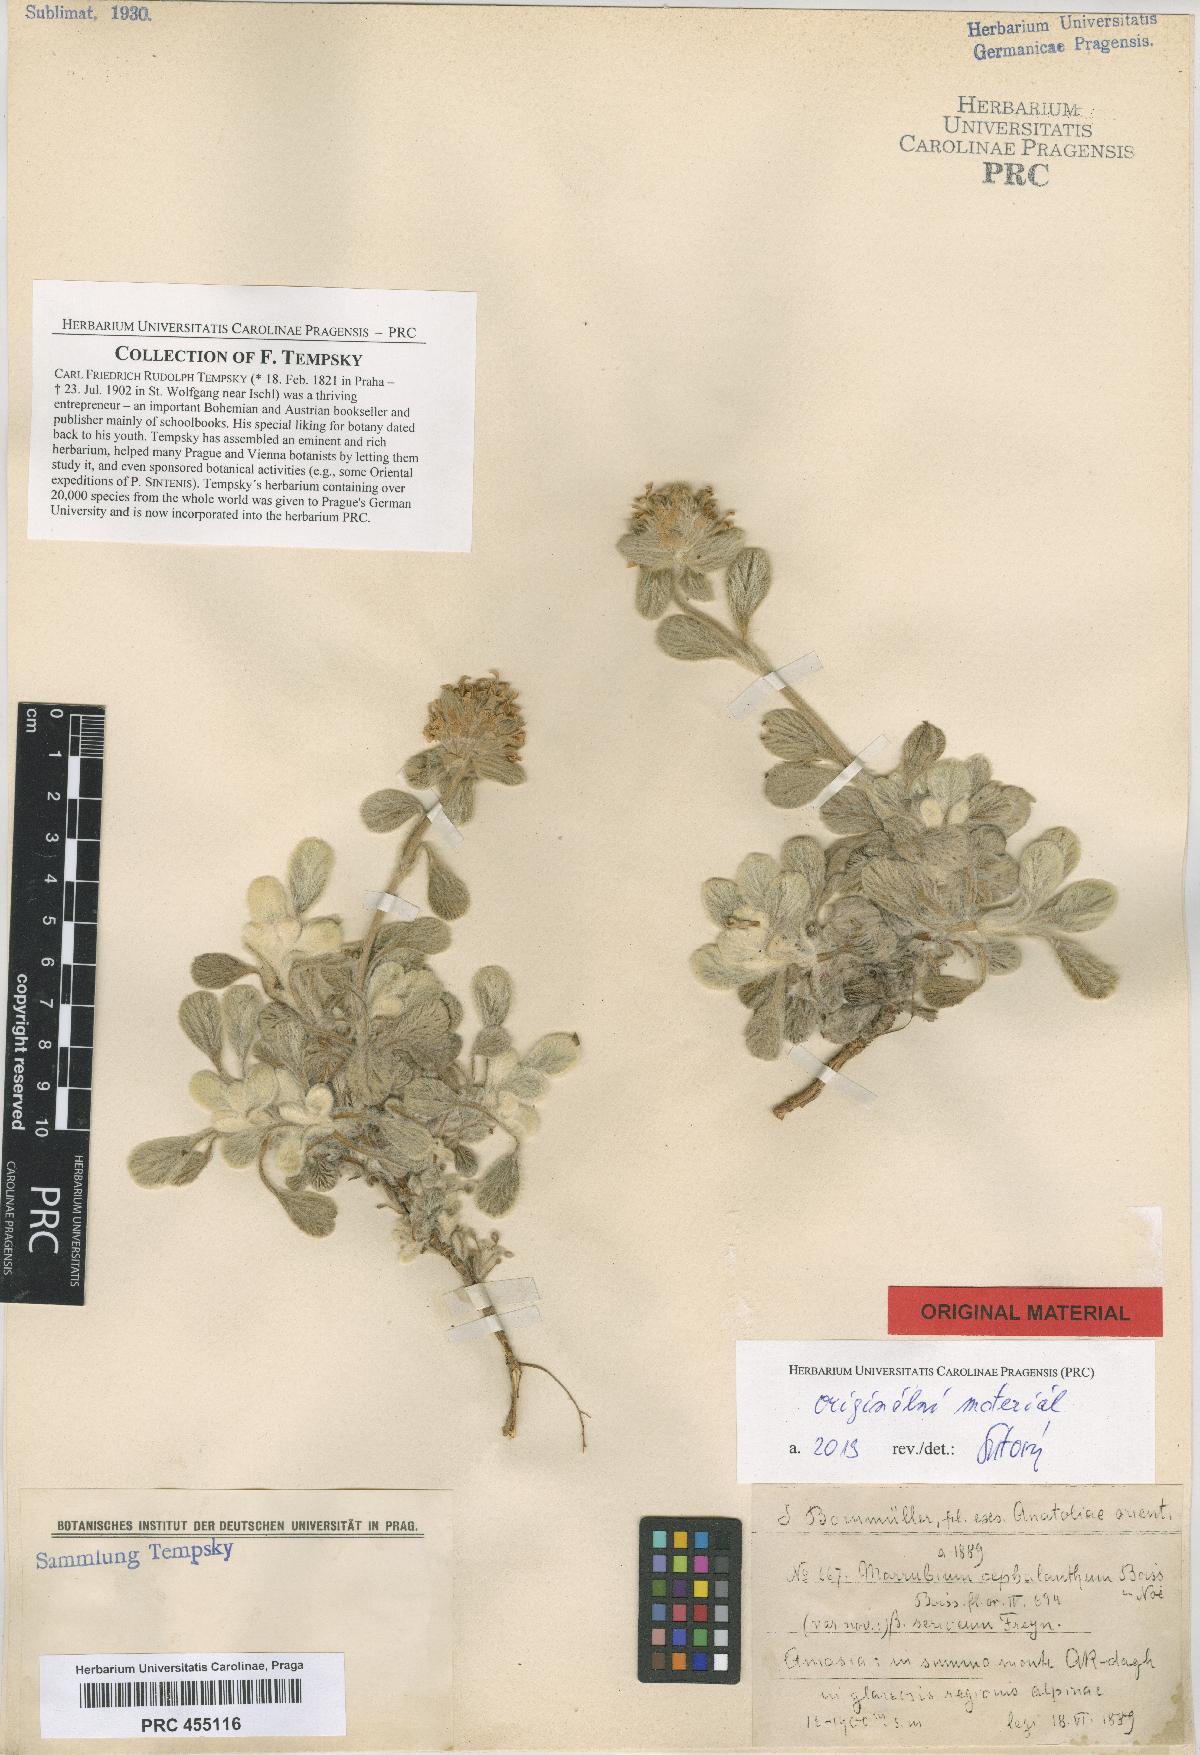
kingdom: Plantae
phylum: Tracheophyta
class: Magnoliopsida
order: Lamiales
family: Lamiaceae
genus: Marrubium
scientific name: Marrubium cephalanthum
